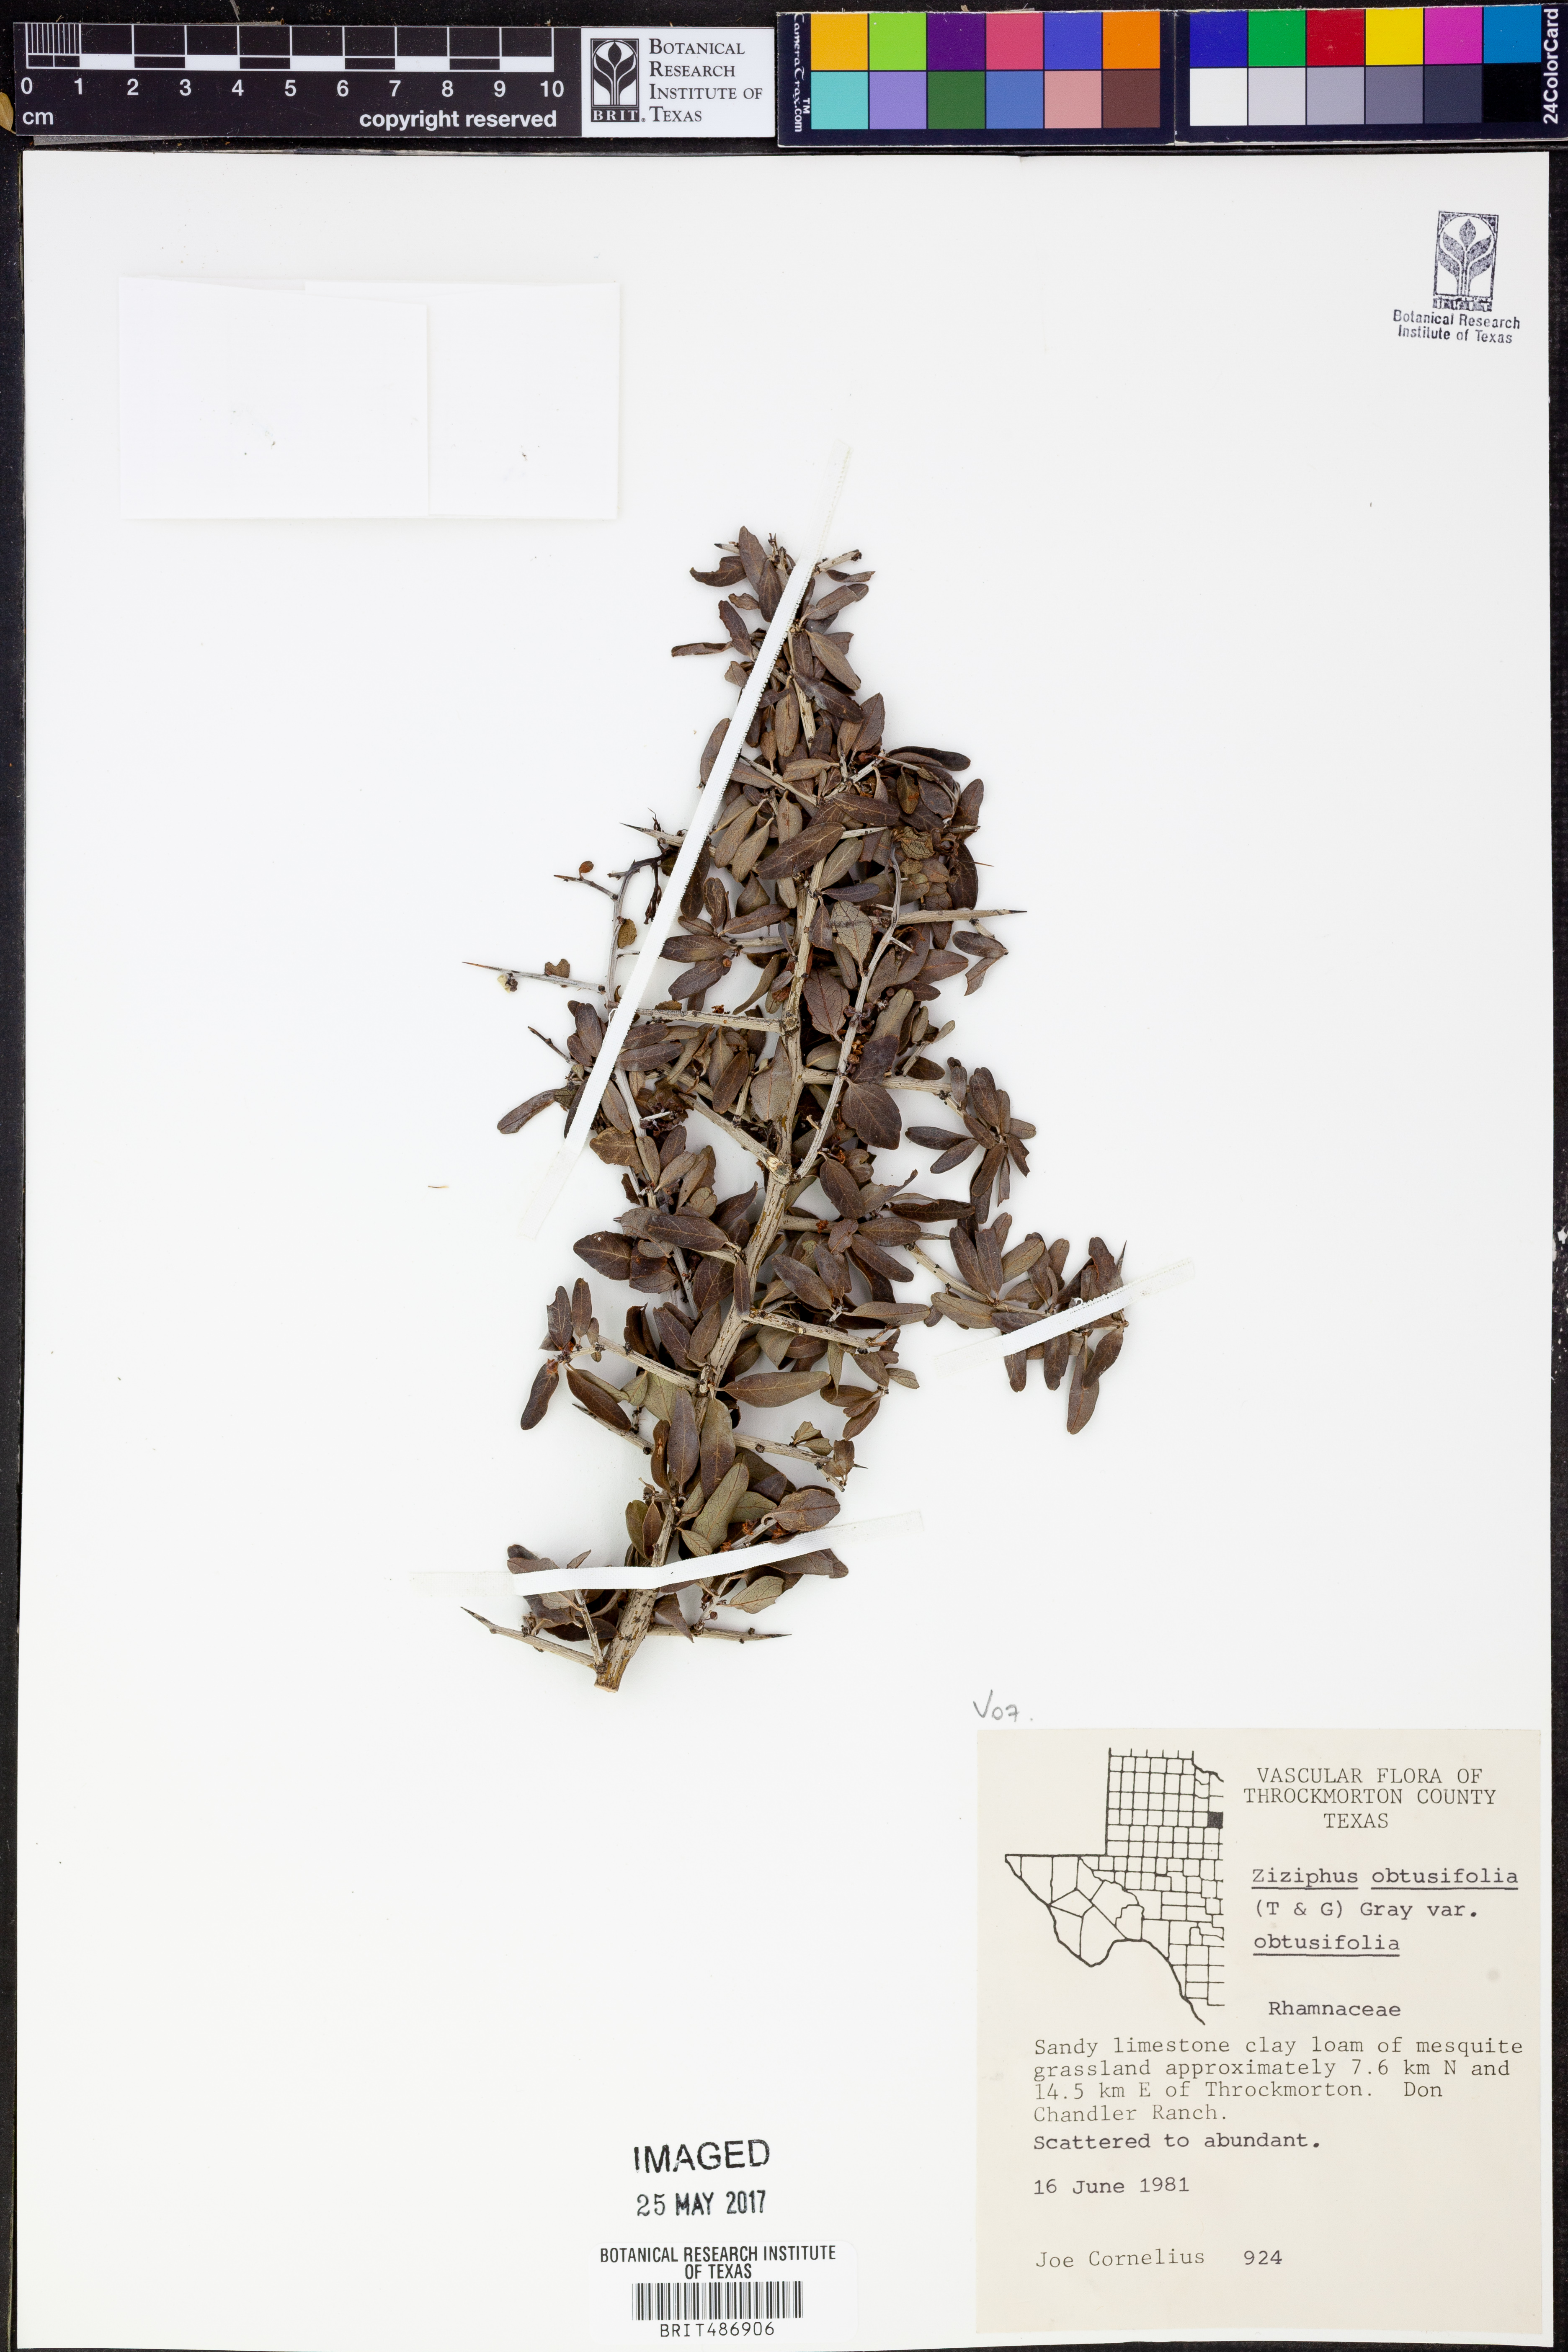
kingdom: Plantae
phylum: Tracheophyta
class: Magnoliopsida
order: Rosales
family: Rhamnaceae
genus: Sarcomphalus
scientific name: Sarcomphalus obtusifolius
